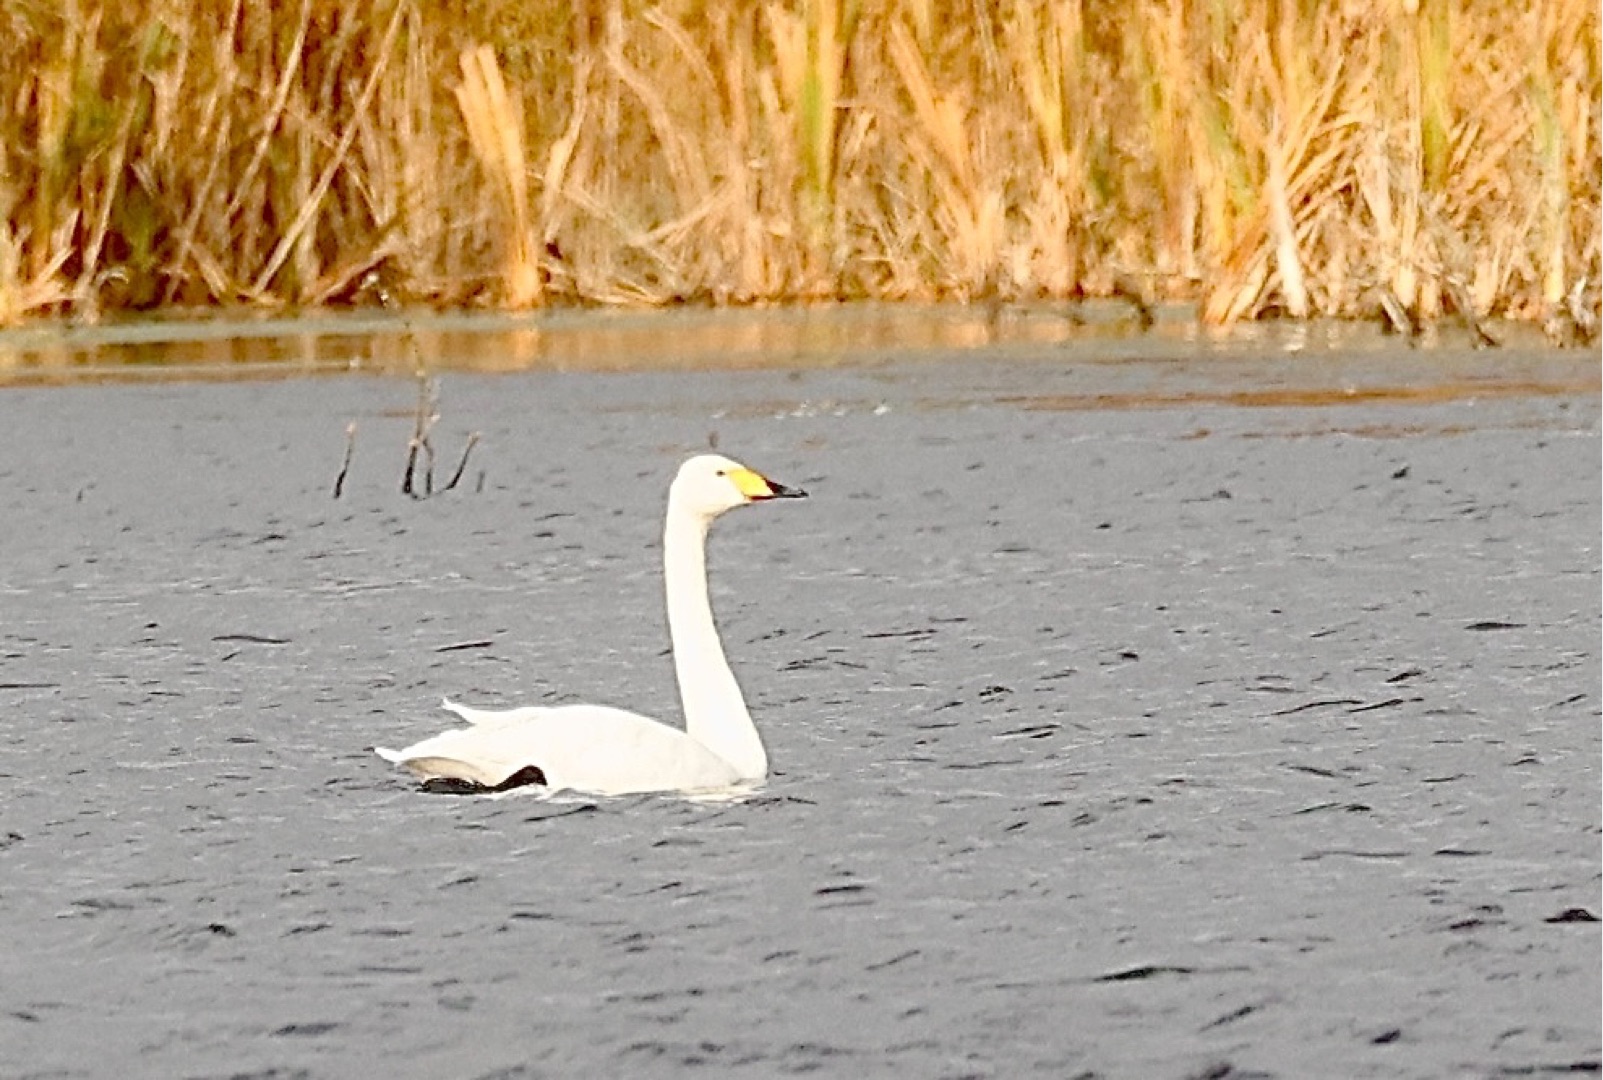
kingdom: Animalia
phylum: Chordata
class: Aves
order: Anseriformes
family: Anatidae
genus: Cygnus
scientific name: Cygnus cygnus
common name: Sangsvane
